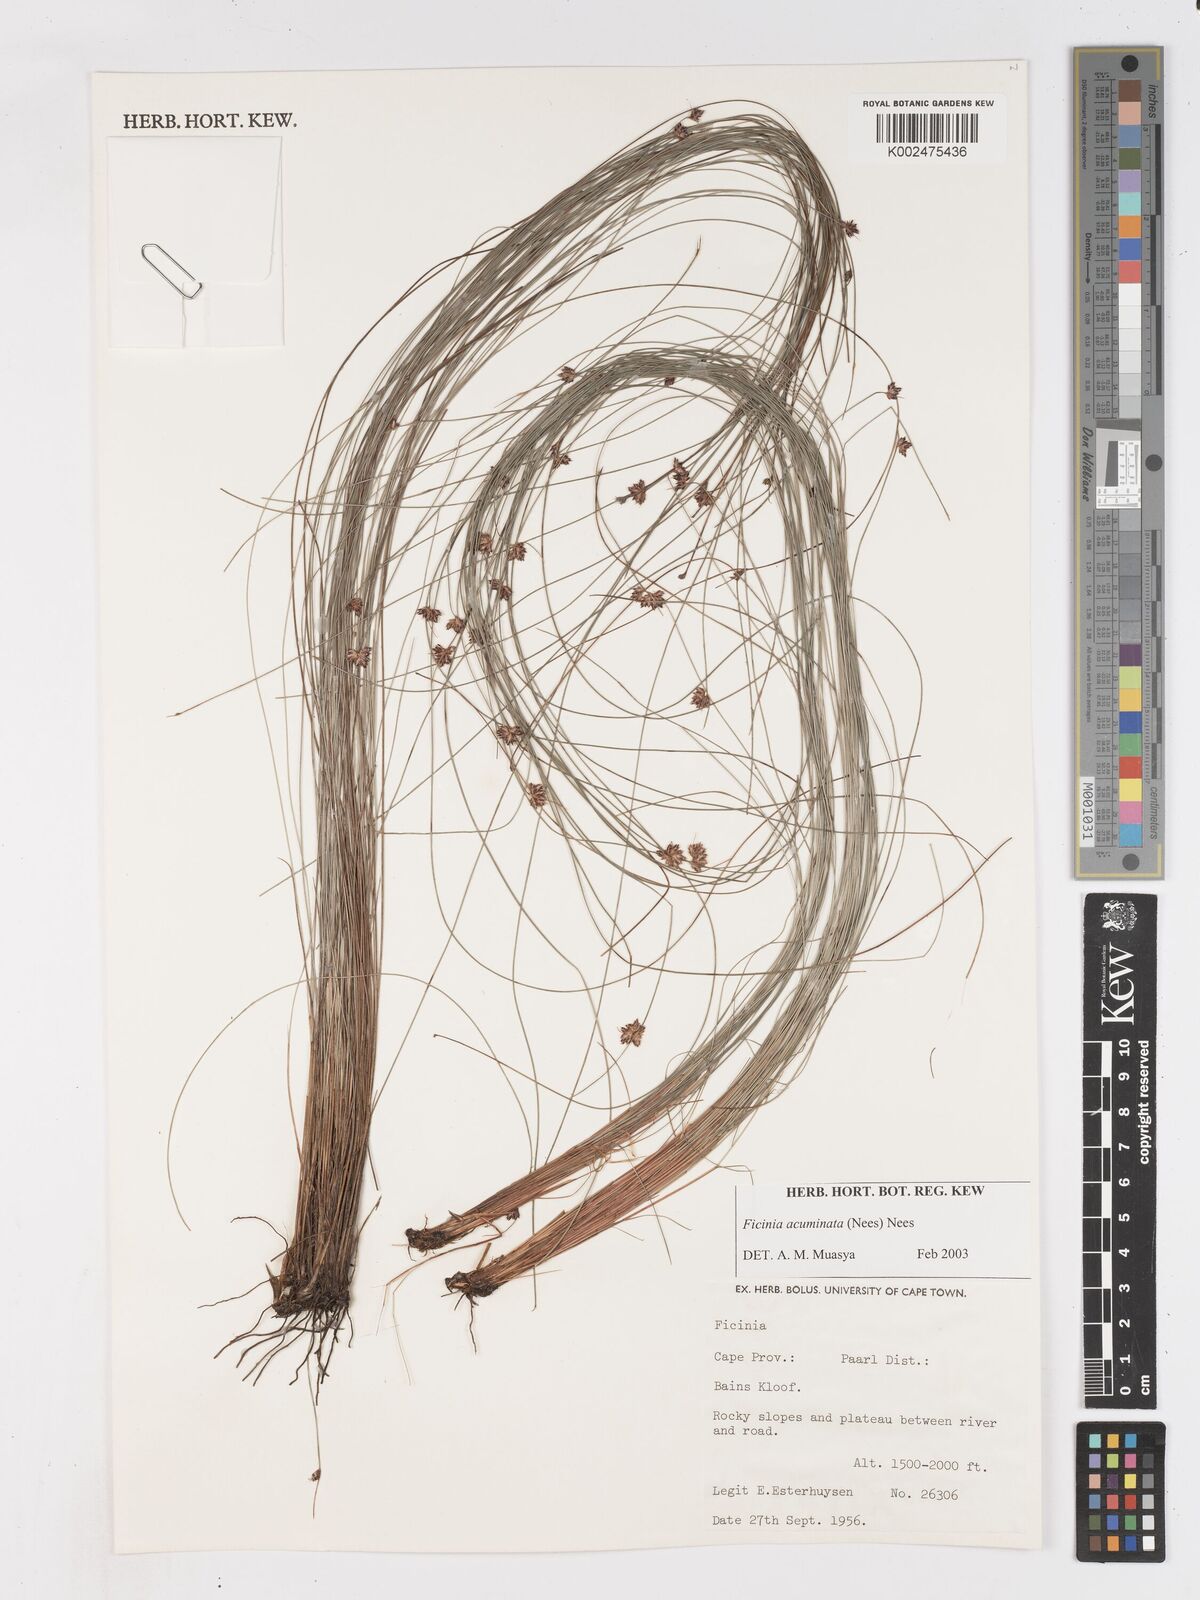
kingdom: Plantae
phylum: Tracheophyta
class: Liliopsida
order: Poales
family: Cyperaceae
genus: Ficinia
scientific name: Ficinia acuminata
